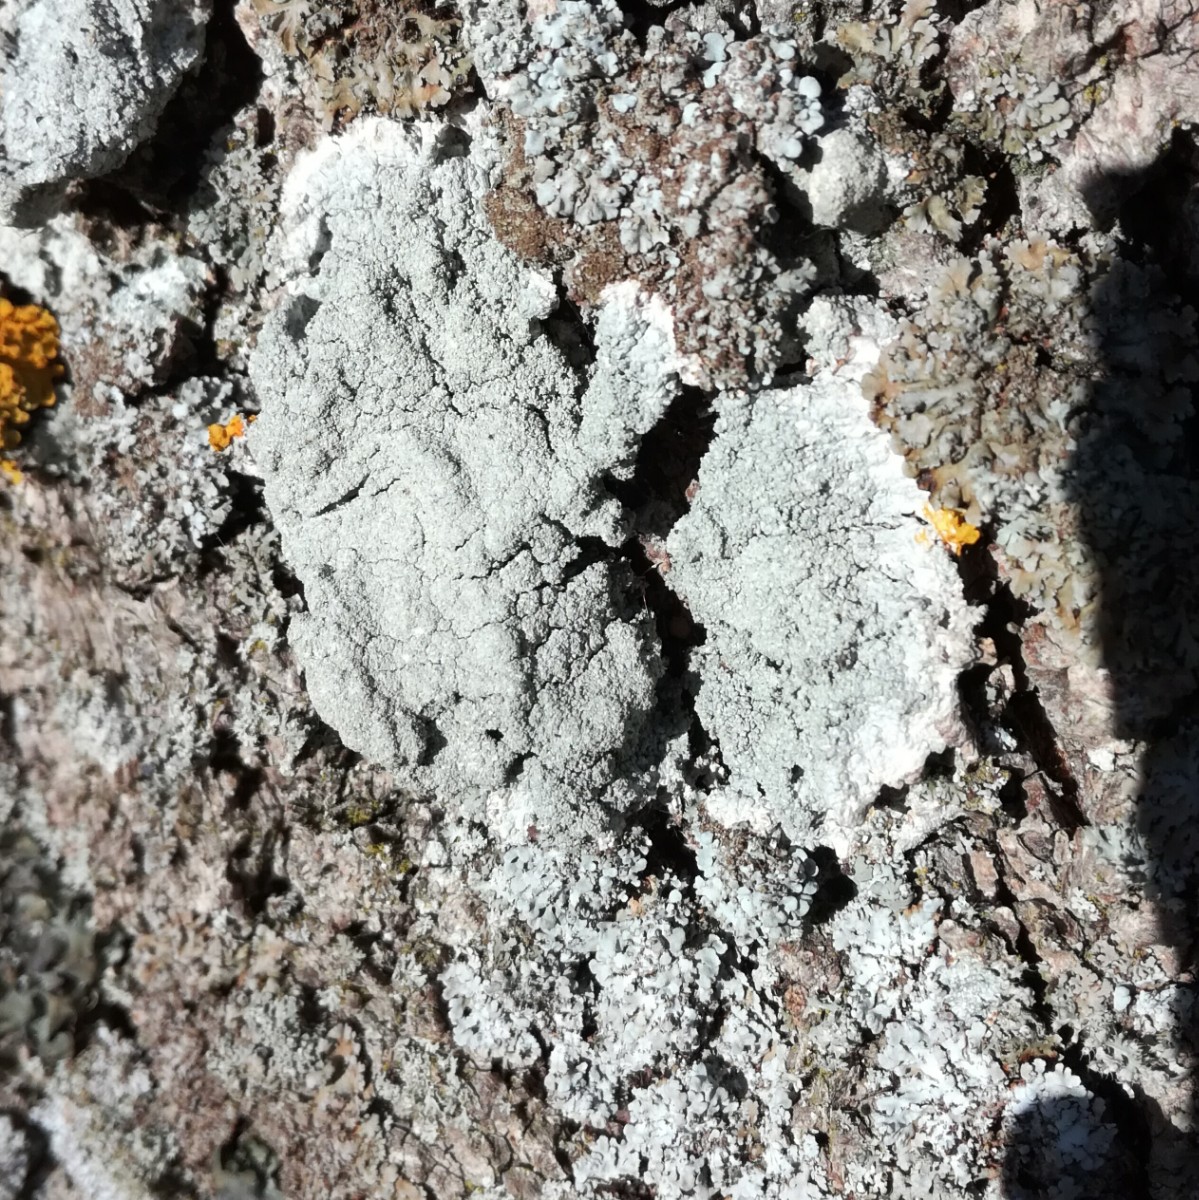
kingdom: Fungi
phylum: Ascomycota
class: Lecanoromycetes
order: Lecanorales
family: Haematommataceae
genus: Haematomma
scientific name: Haematomma ochroleucum
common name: gul trådkantlav
